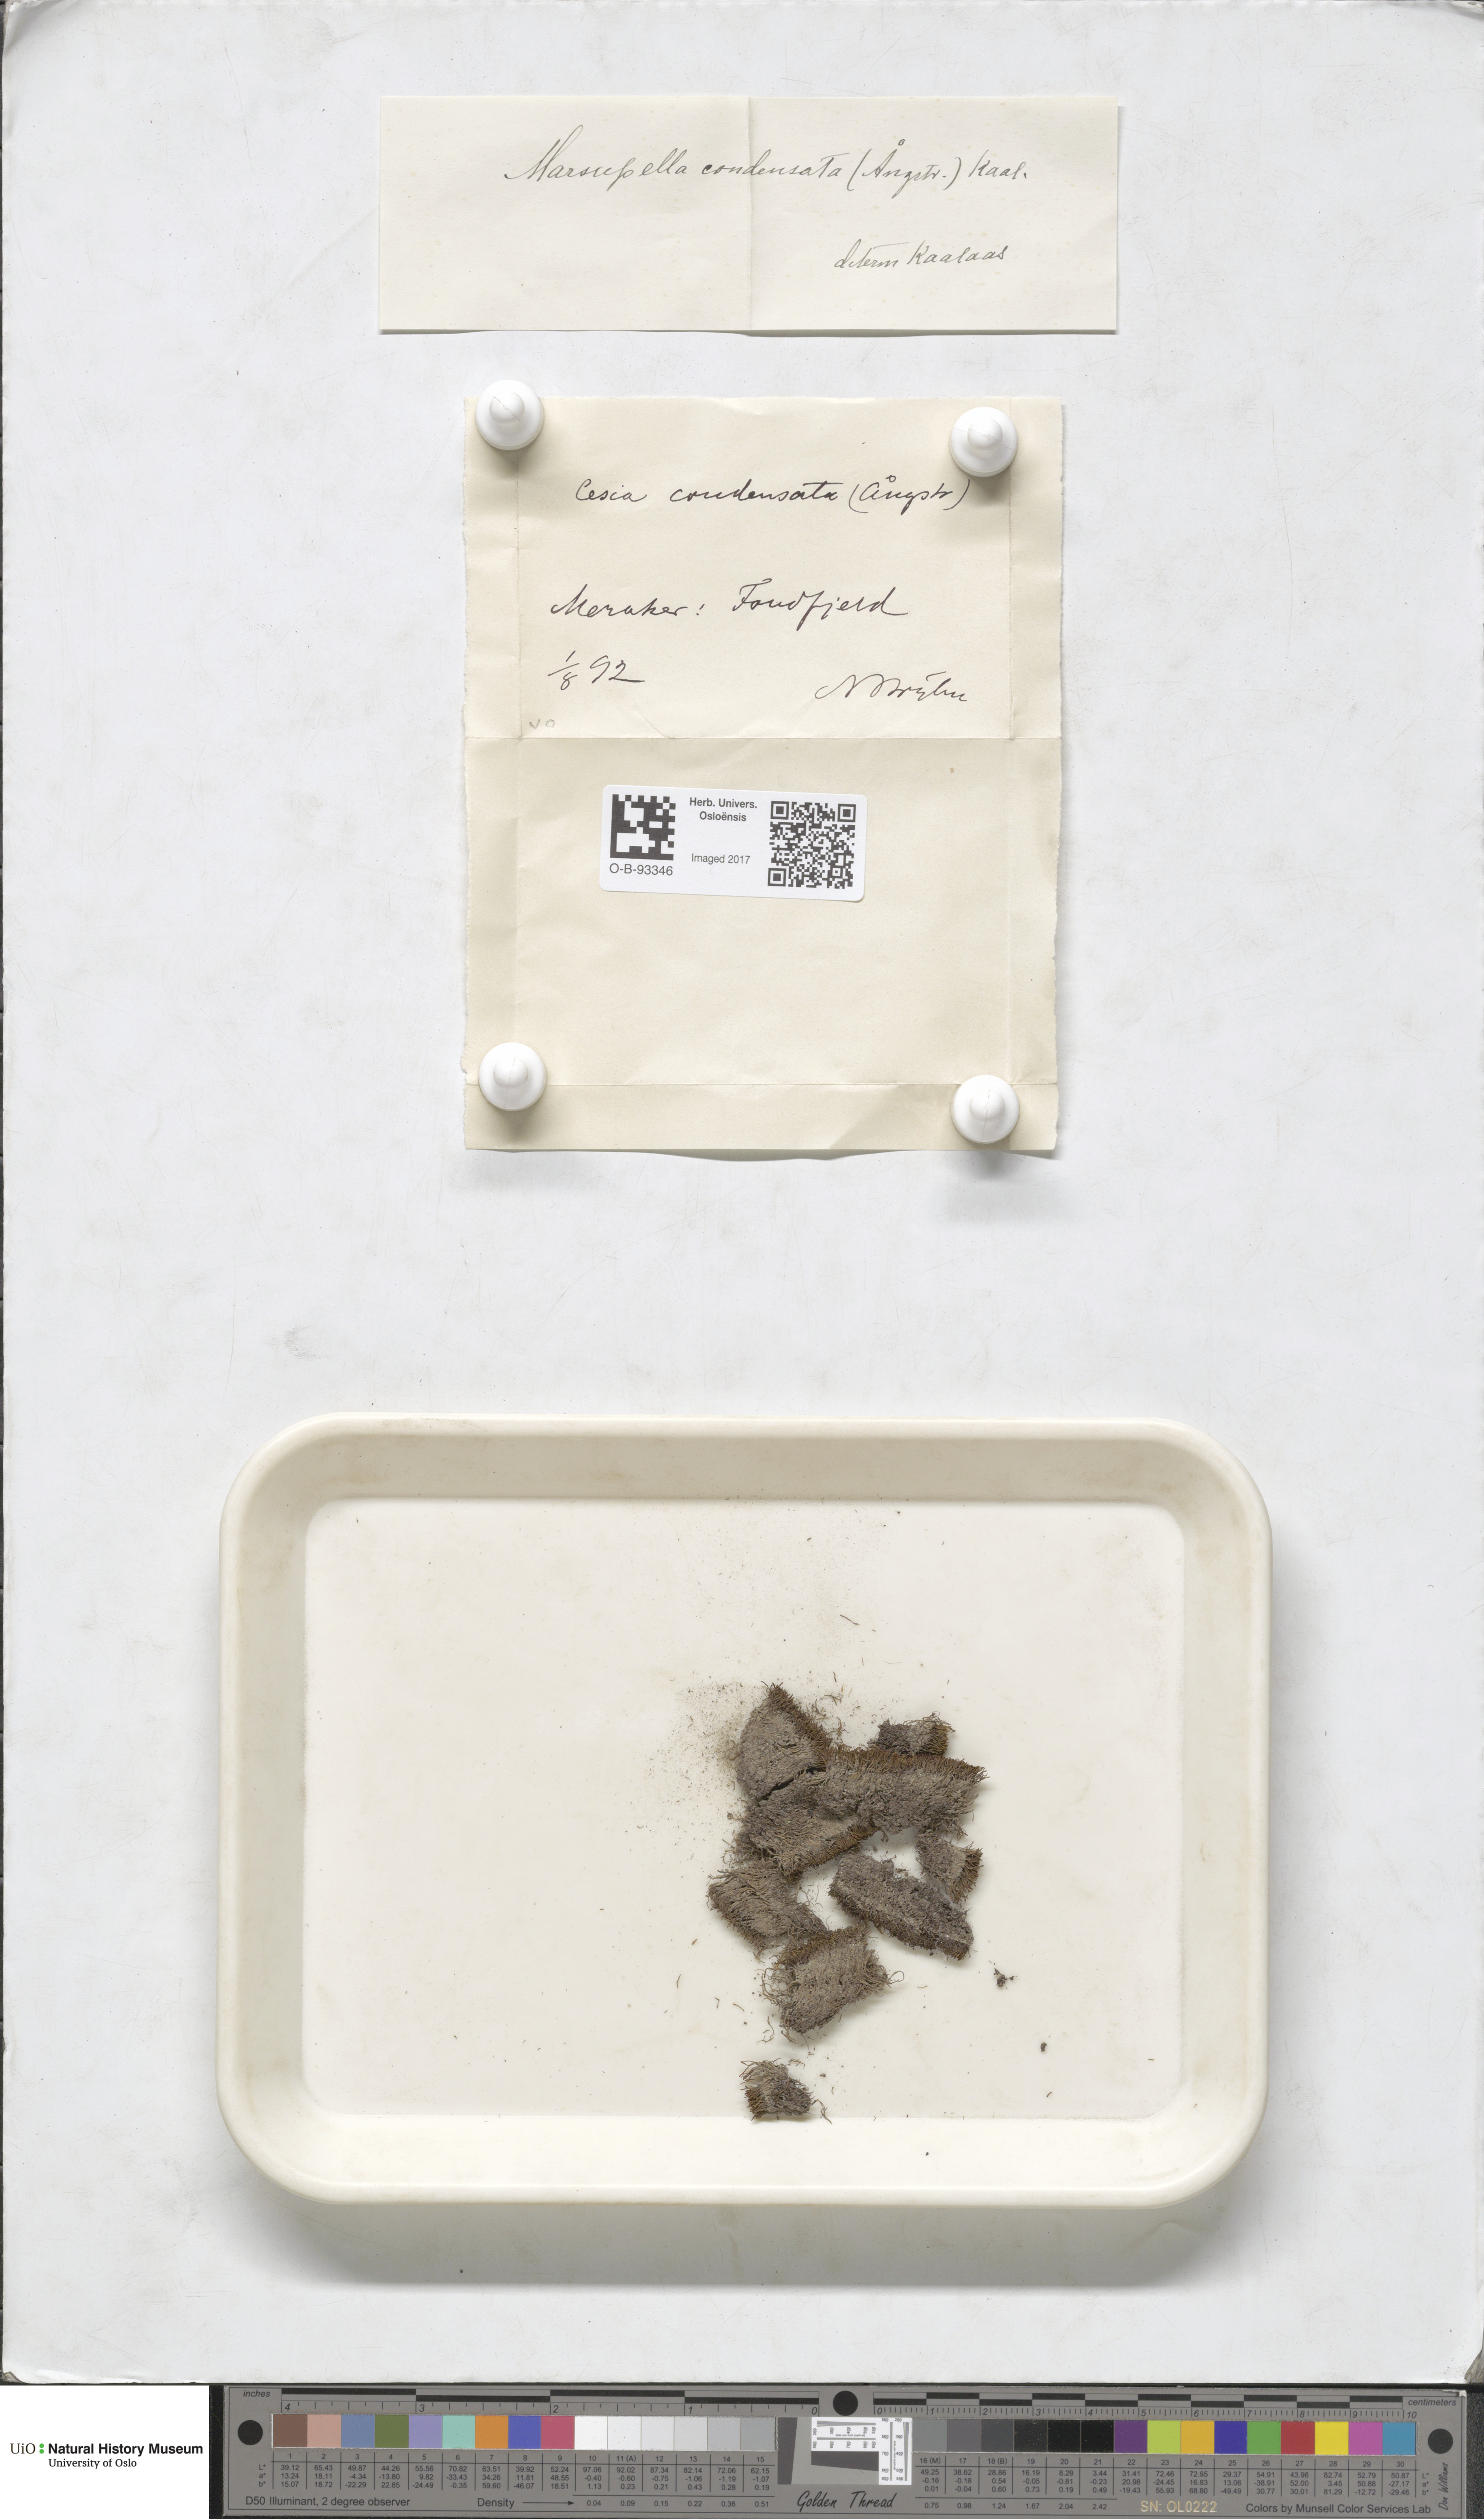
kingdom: Plantae
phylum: Marchantiophyta
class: Jungermanniopsida
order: Jungermanniales
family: Gymnomitriaceae
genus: Gymnomitrion
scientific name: Gymnomitrion brevissimum
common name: Snow rustwort
